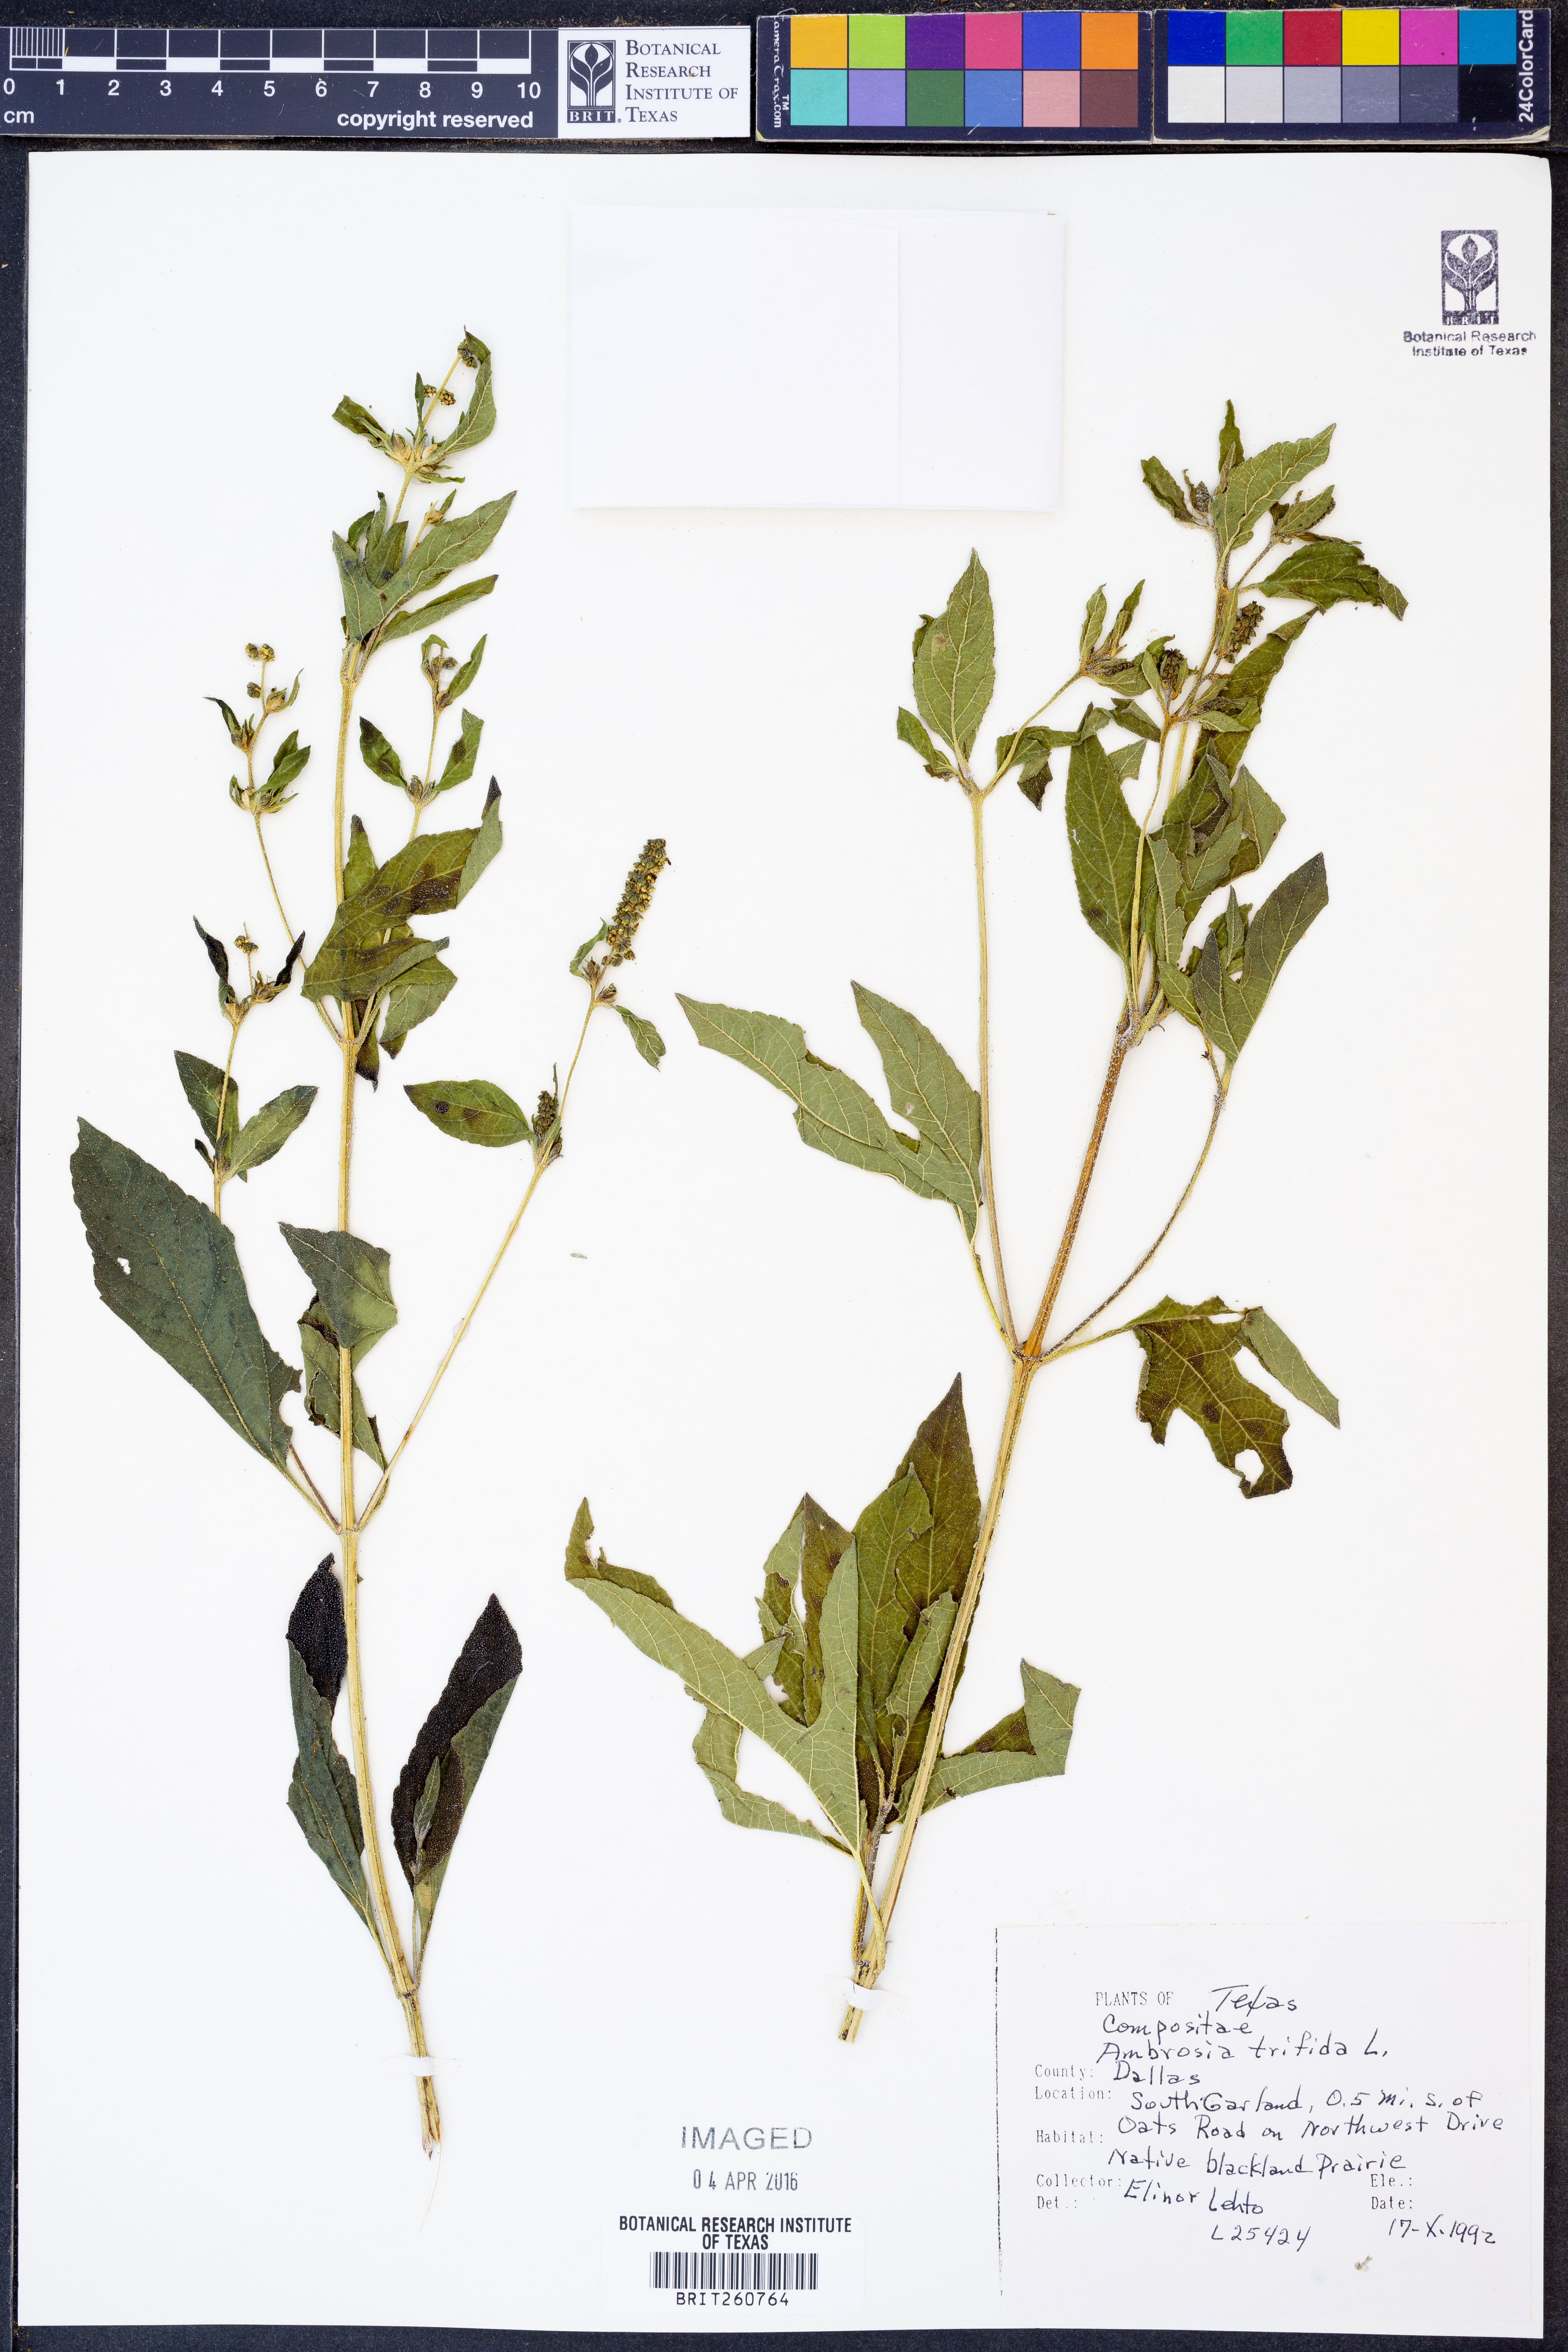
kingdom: Plantae
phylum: Tracheophyta
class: Magnoliopsida
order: Asterales
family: Asteraceae
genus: Ambrosia
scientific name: Ambrosia trifida
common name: Giant ragweed
